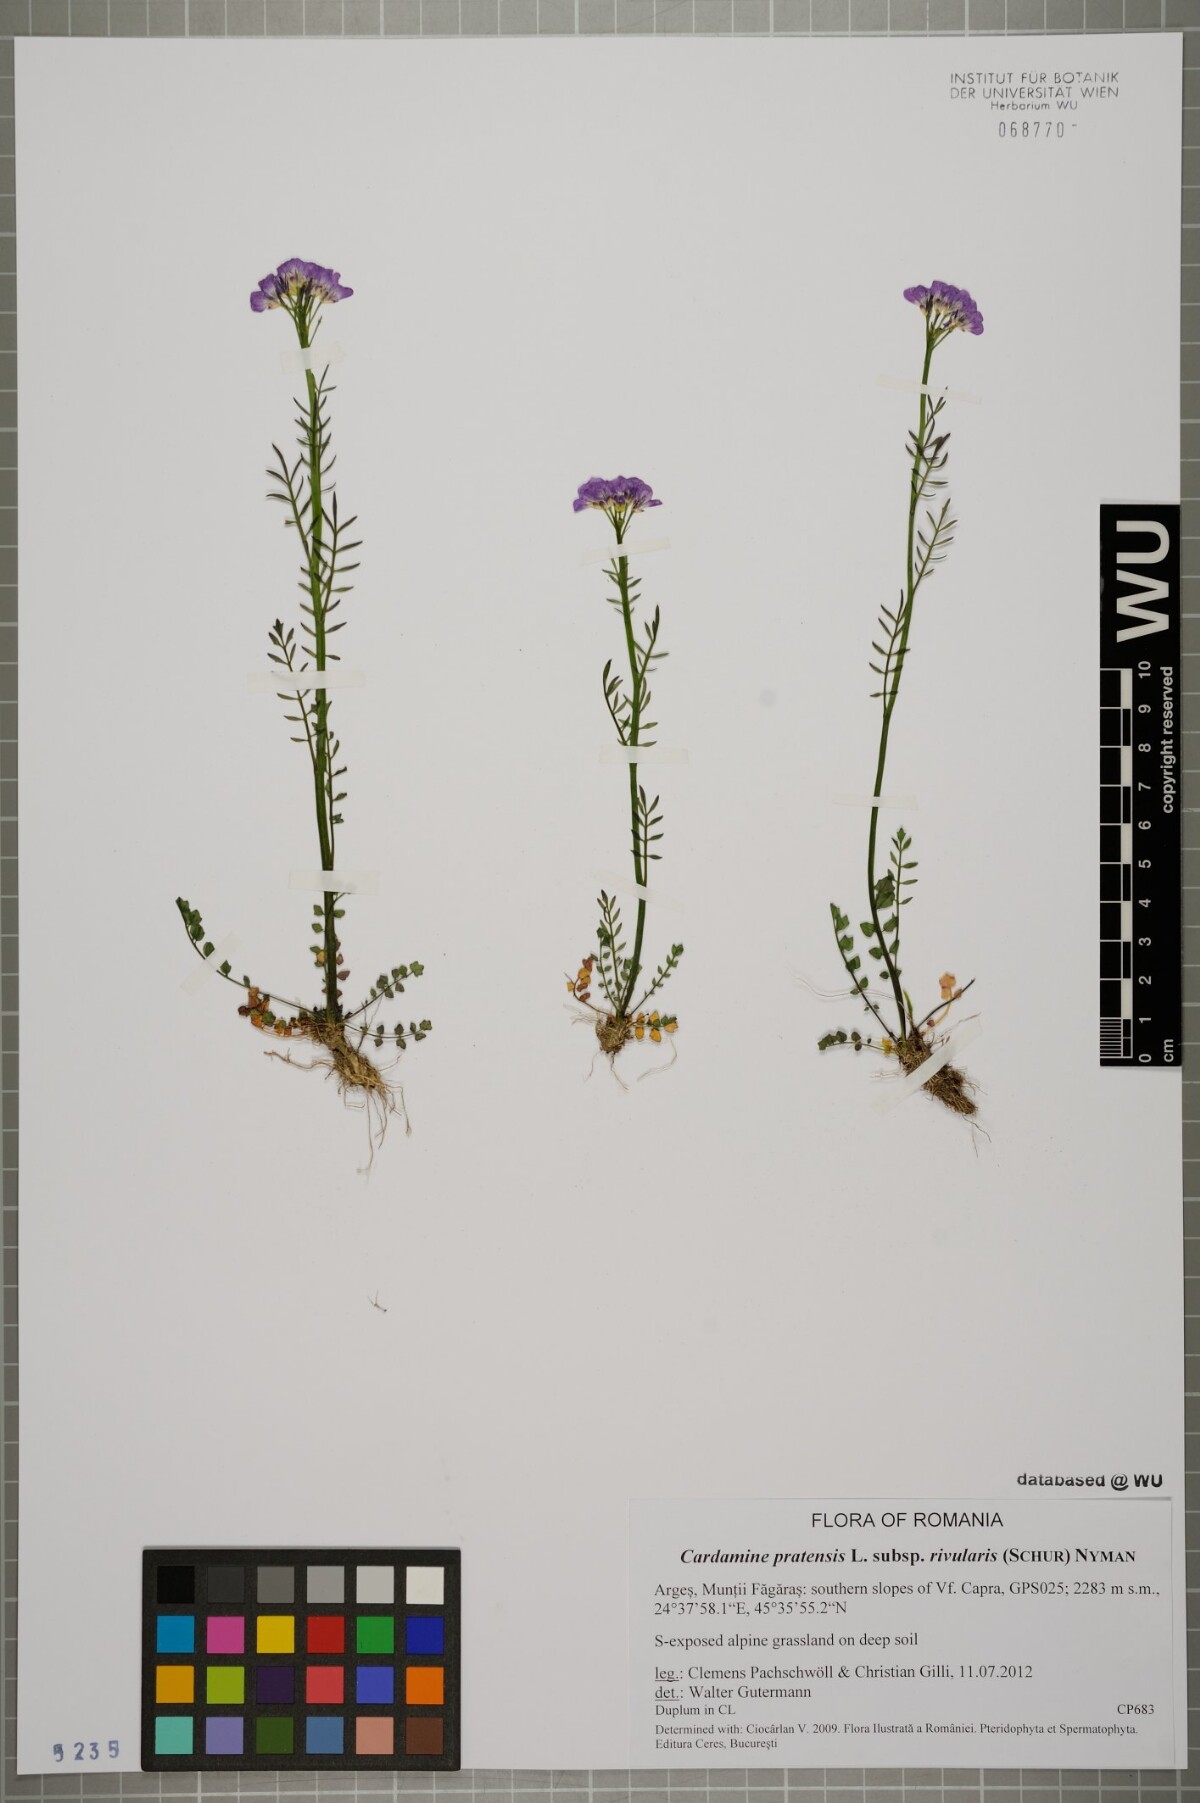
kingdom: Plantae
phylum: Tracheophyta
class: Magnoliopsida
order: Brassicales
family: Brassicaceae
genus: Cardamine
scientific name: Cardamine pratensis
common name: Cuckoo flower
